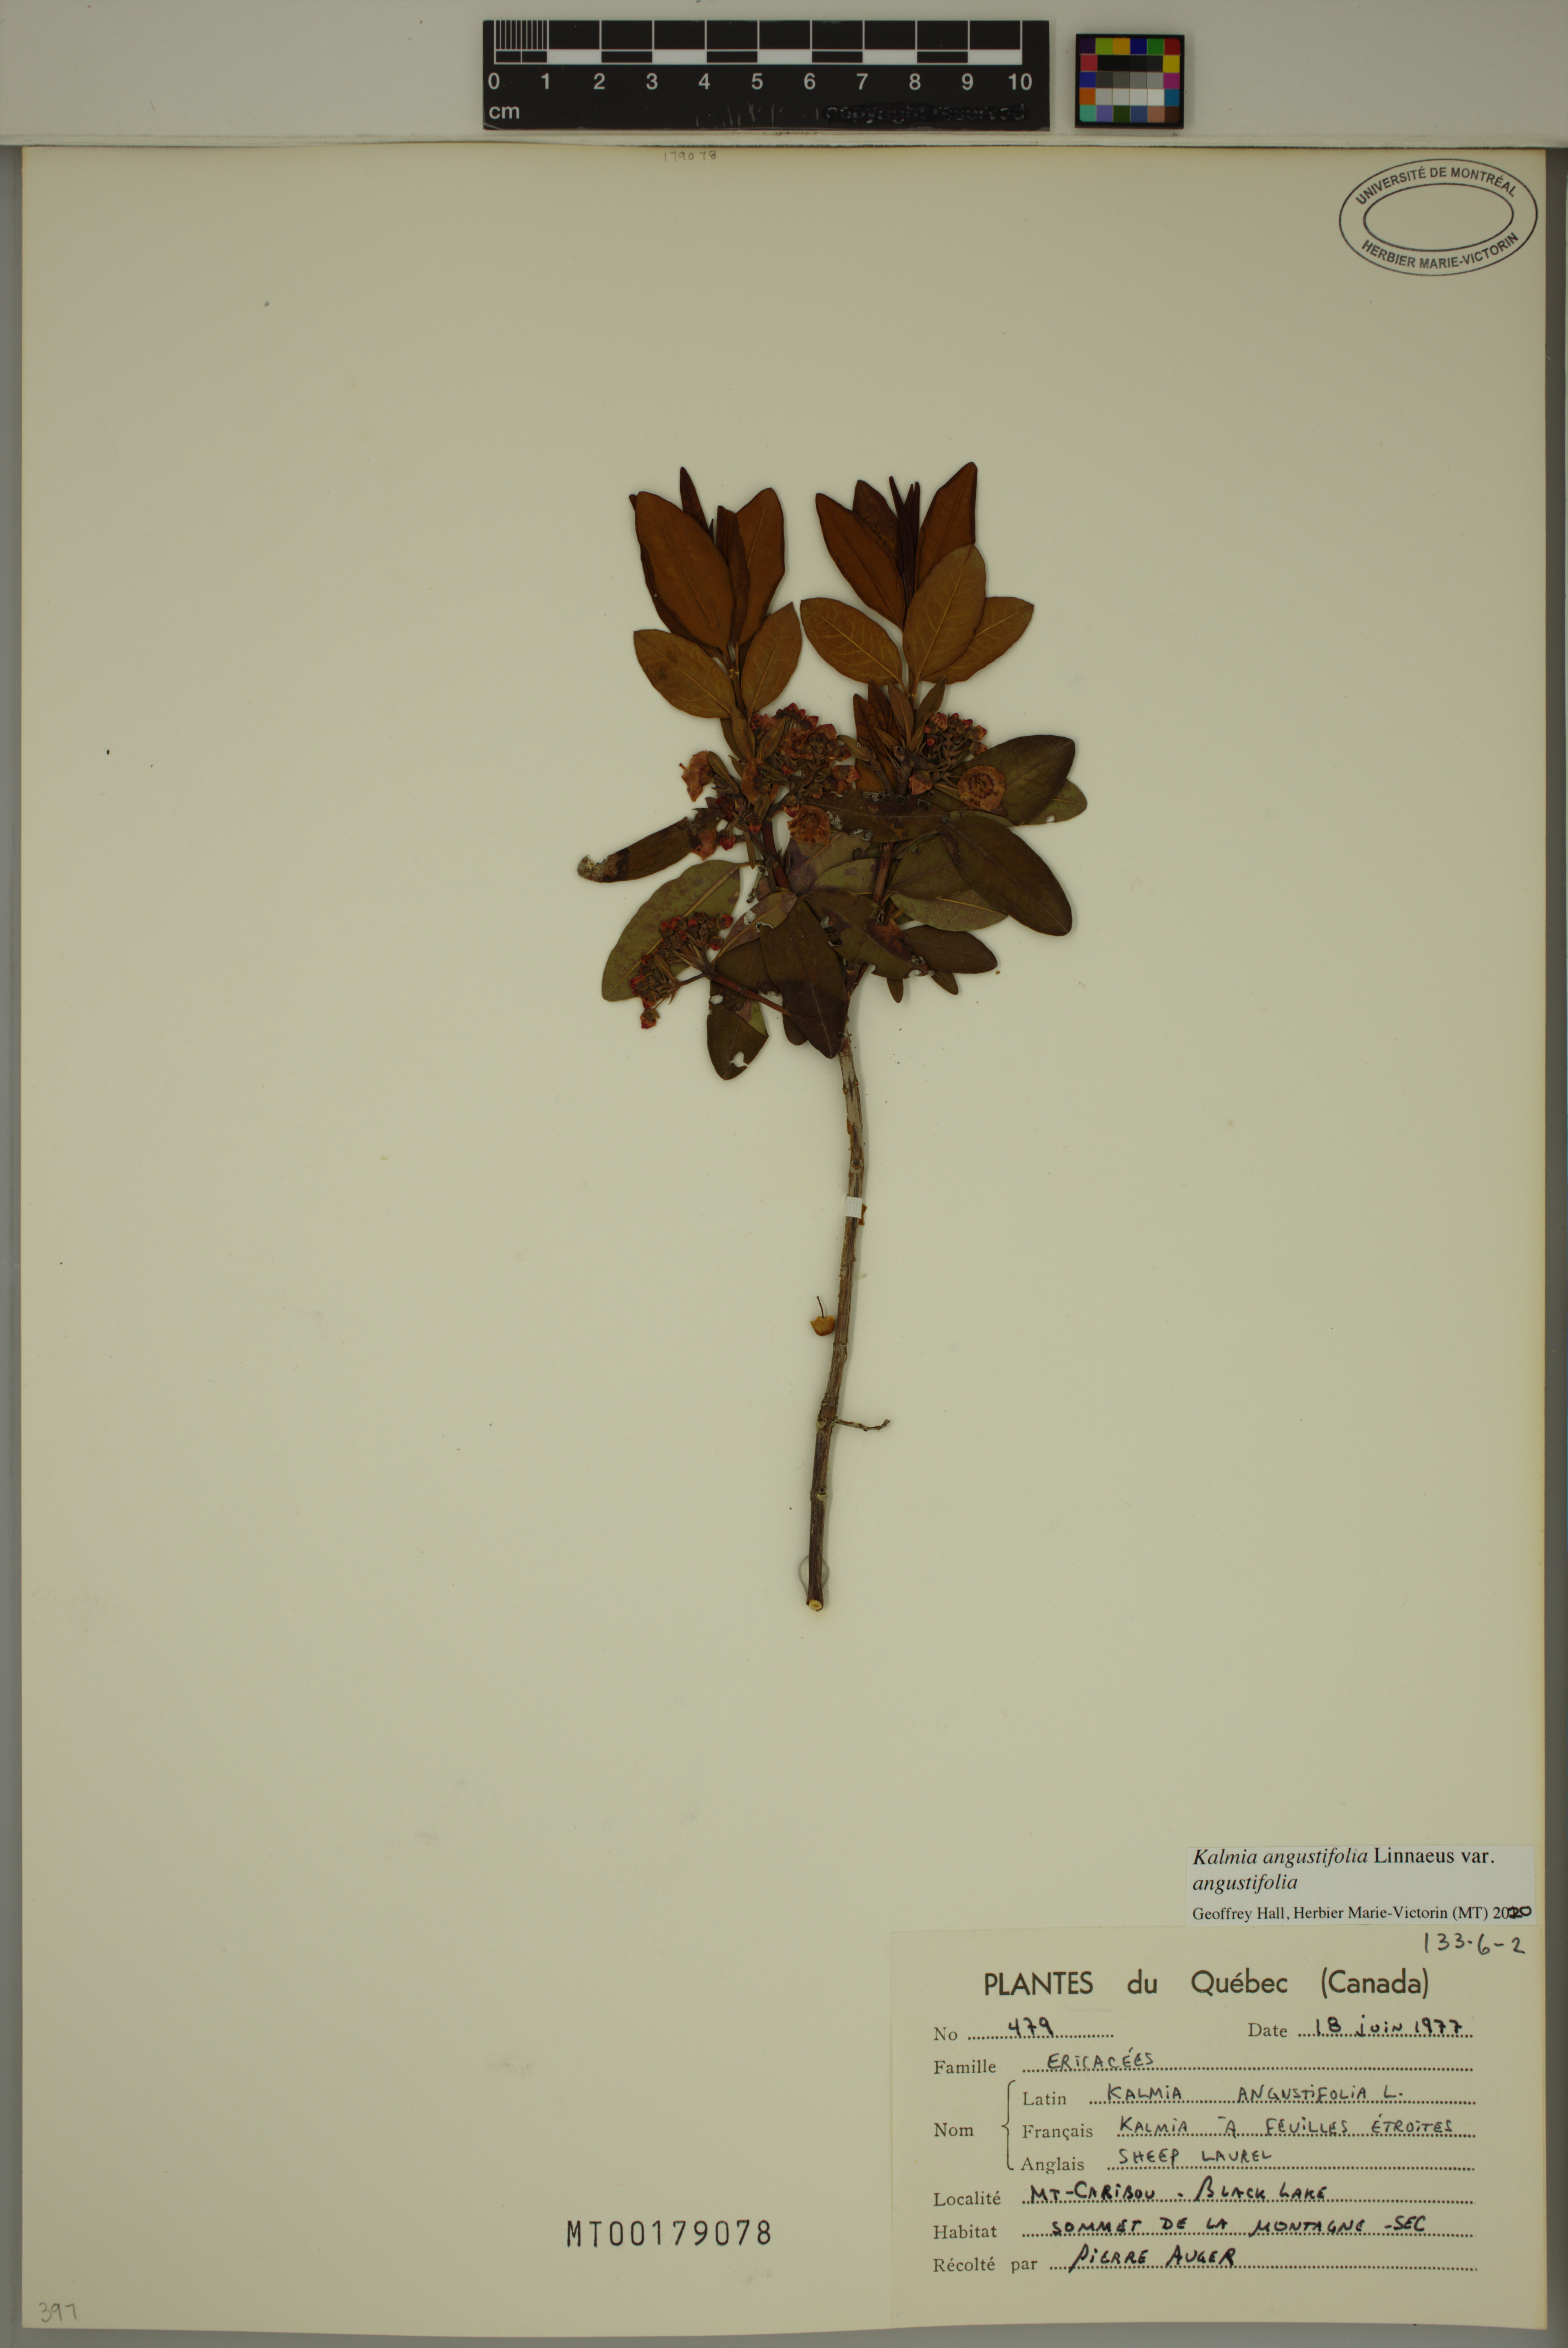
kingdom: Plantae
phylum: Tracheophyta
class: Magnoliopsida
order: Ericales
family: Ericaceae
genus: Kalmia
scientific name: Kalmia angustifolia
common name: Sheep-laurel
